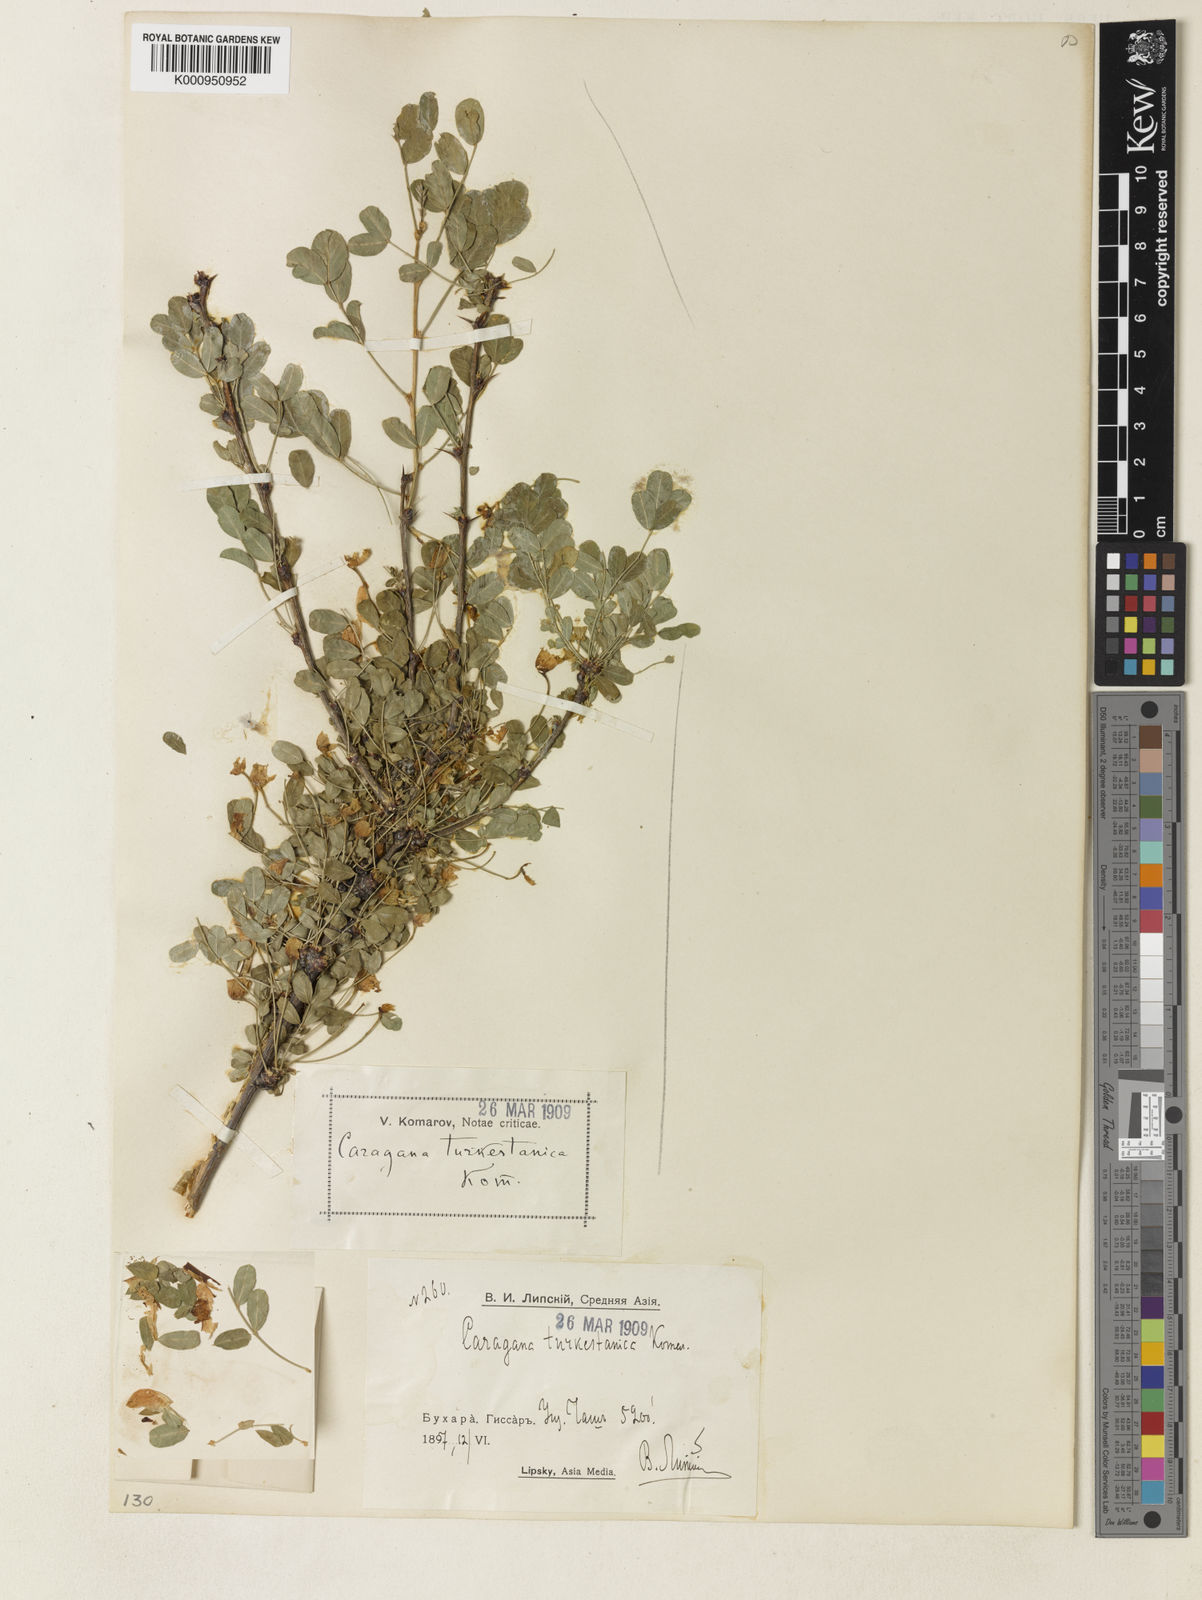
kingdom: Plantae
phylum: Tracheophyta
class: Magnoliopsida
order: Fabales
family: Fabaceae
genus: Caragana
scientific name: Caragana turkestanica
